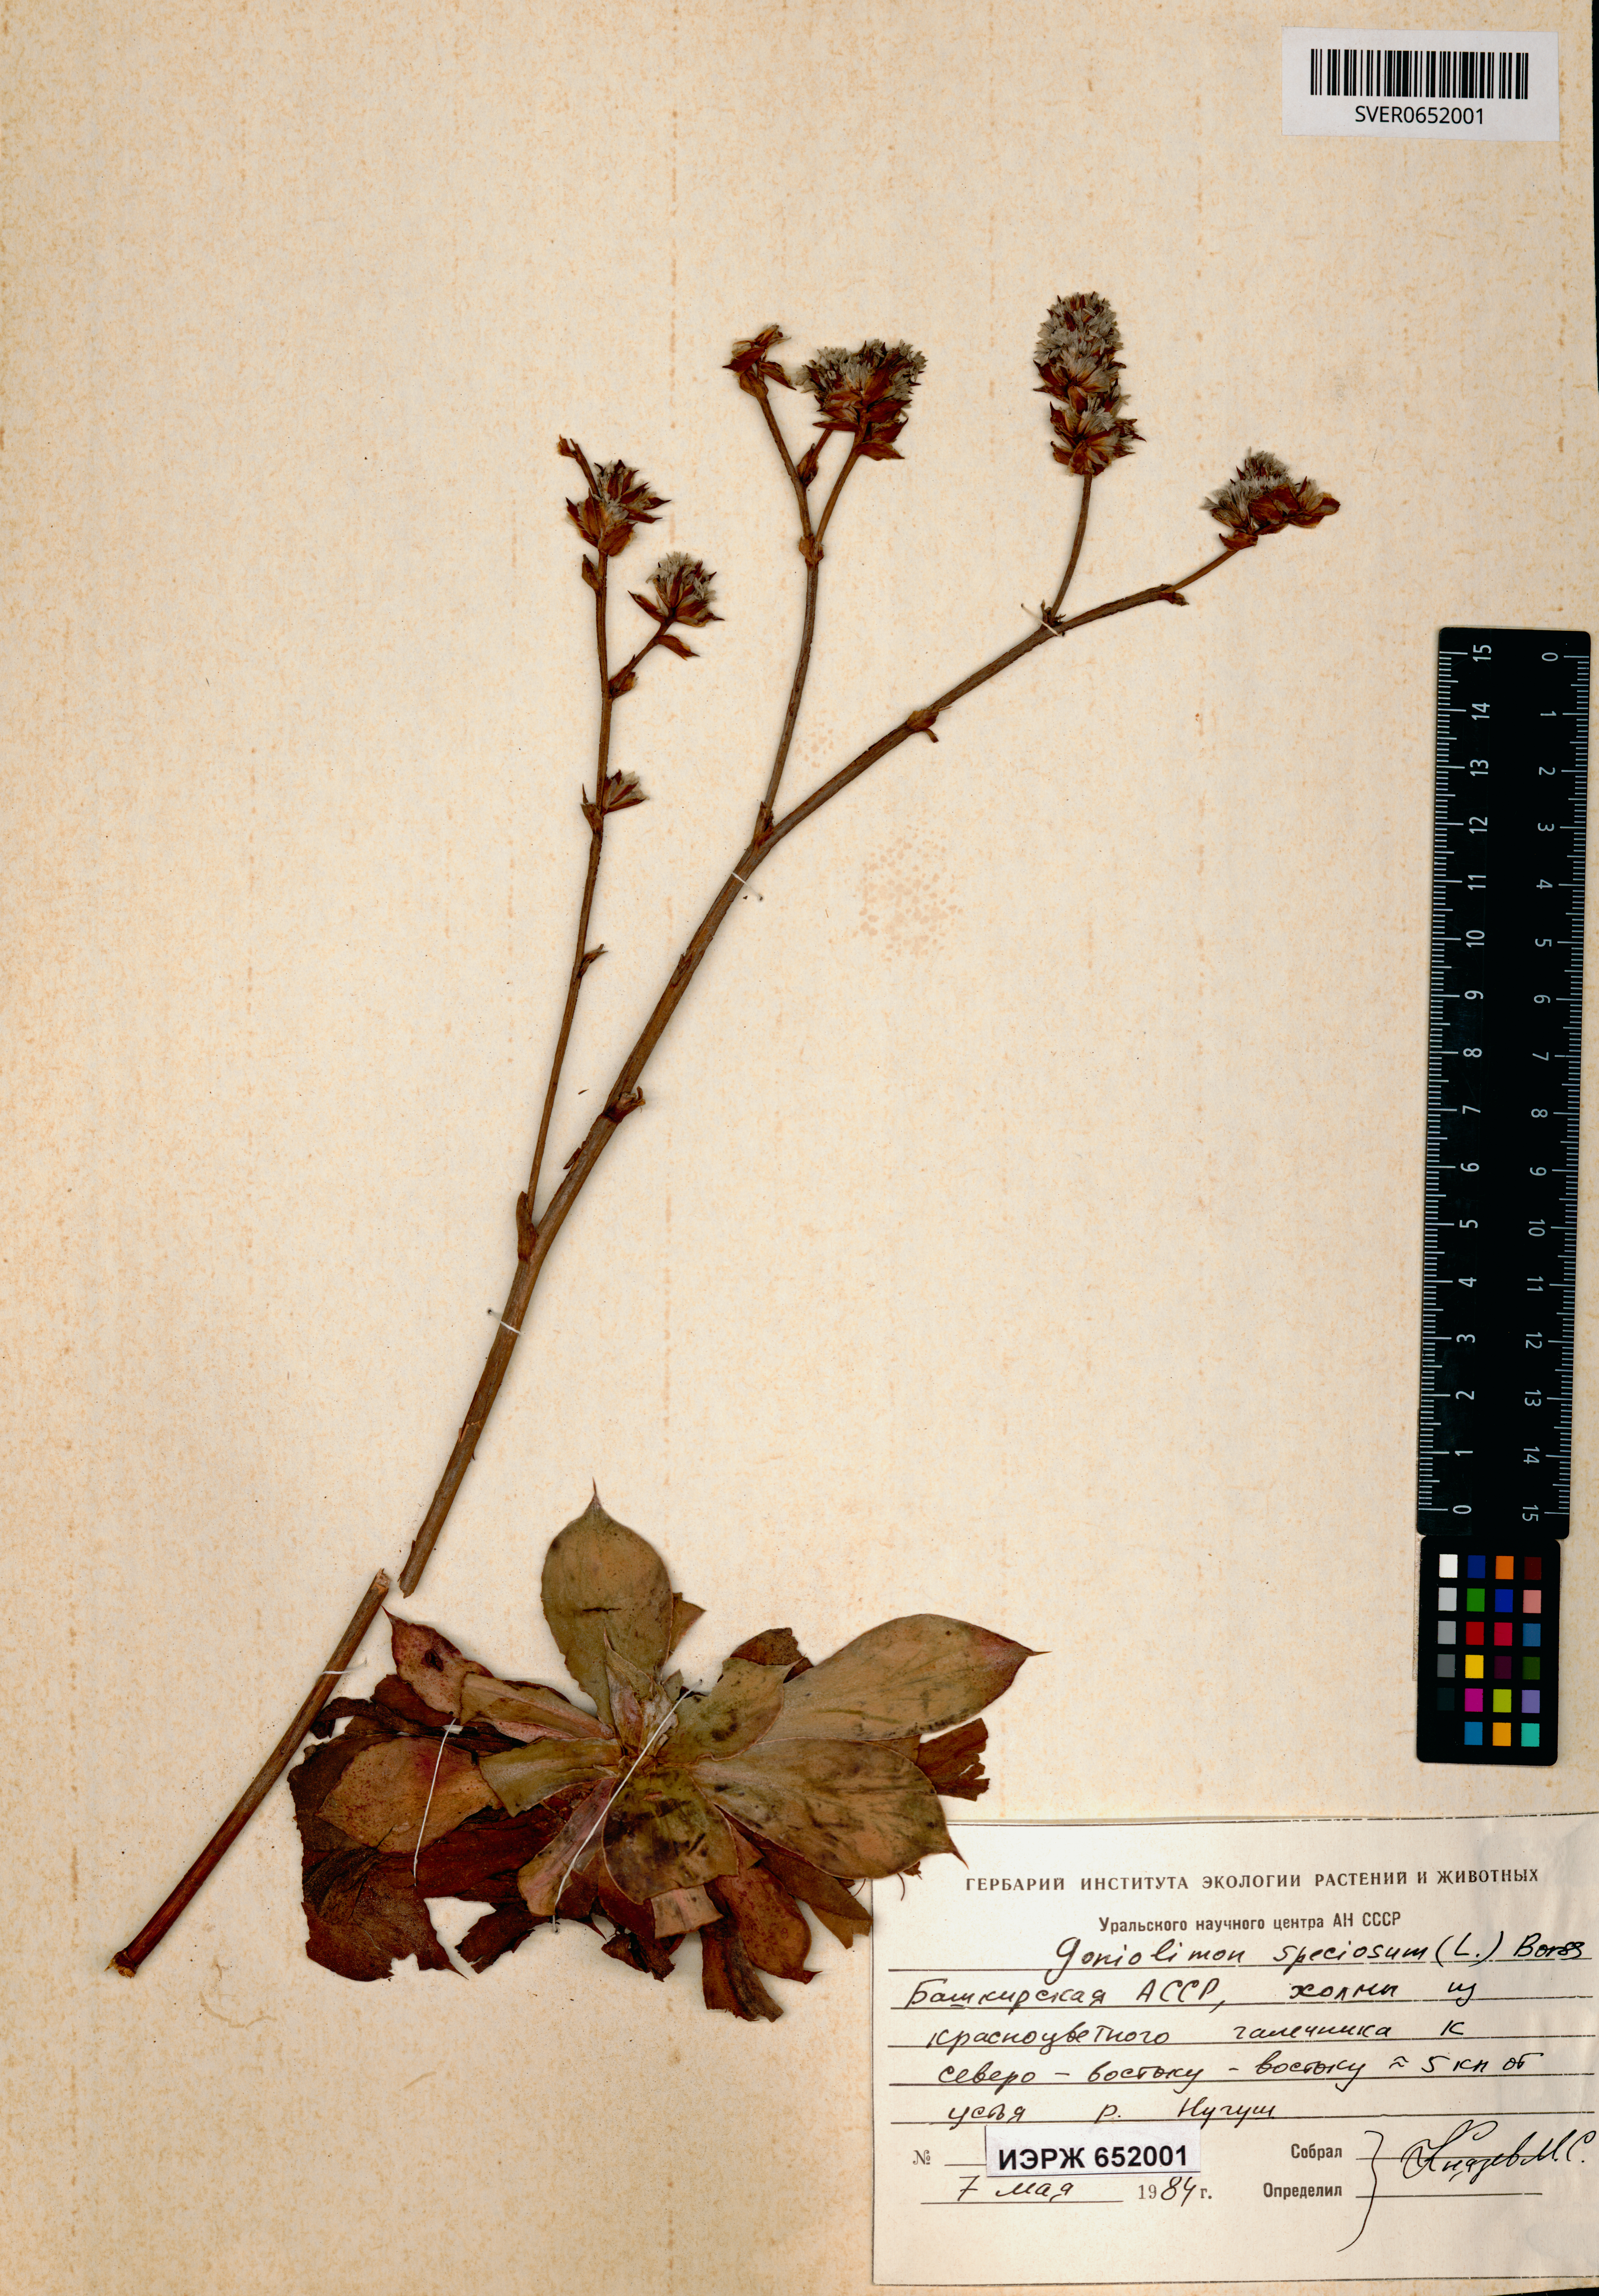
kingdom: Plantae
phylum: Tracheophyta
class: Magnoliopsida
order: Caryophyllales
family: Plumbaginaceae
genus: Goniolimon
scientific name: Goniolimon speciosum
